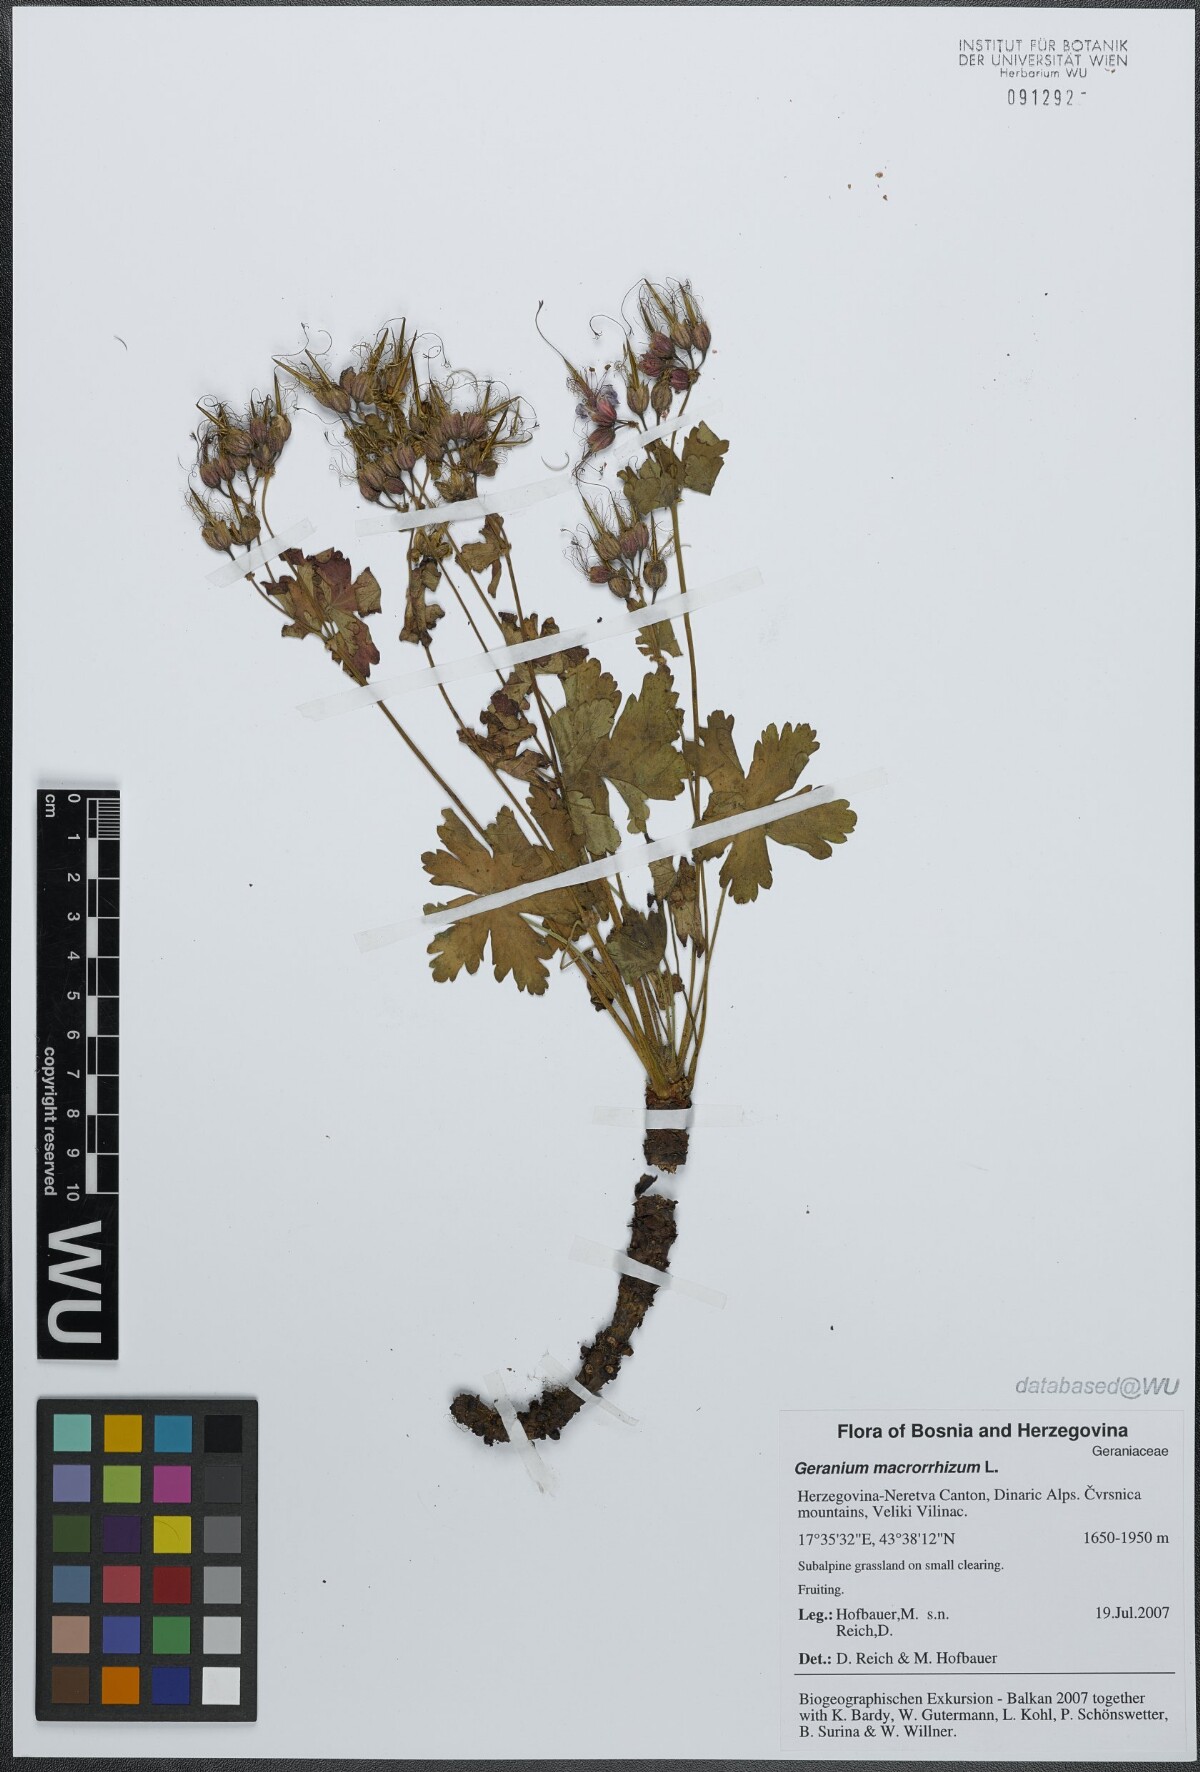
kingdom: Plantae
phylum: Tracheophyta
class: Magnoliopsida
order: Geraniales
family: Geraniaceae
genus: Geranium
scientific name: Geranium macrorrhizum
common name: Rock crane's-bill
